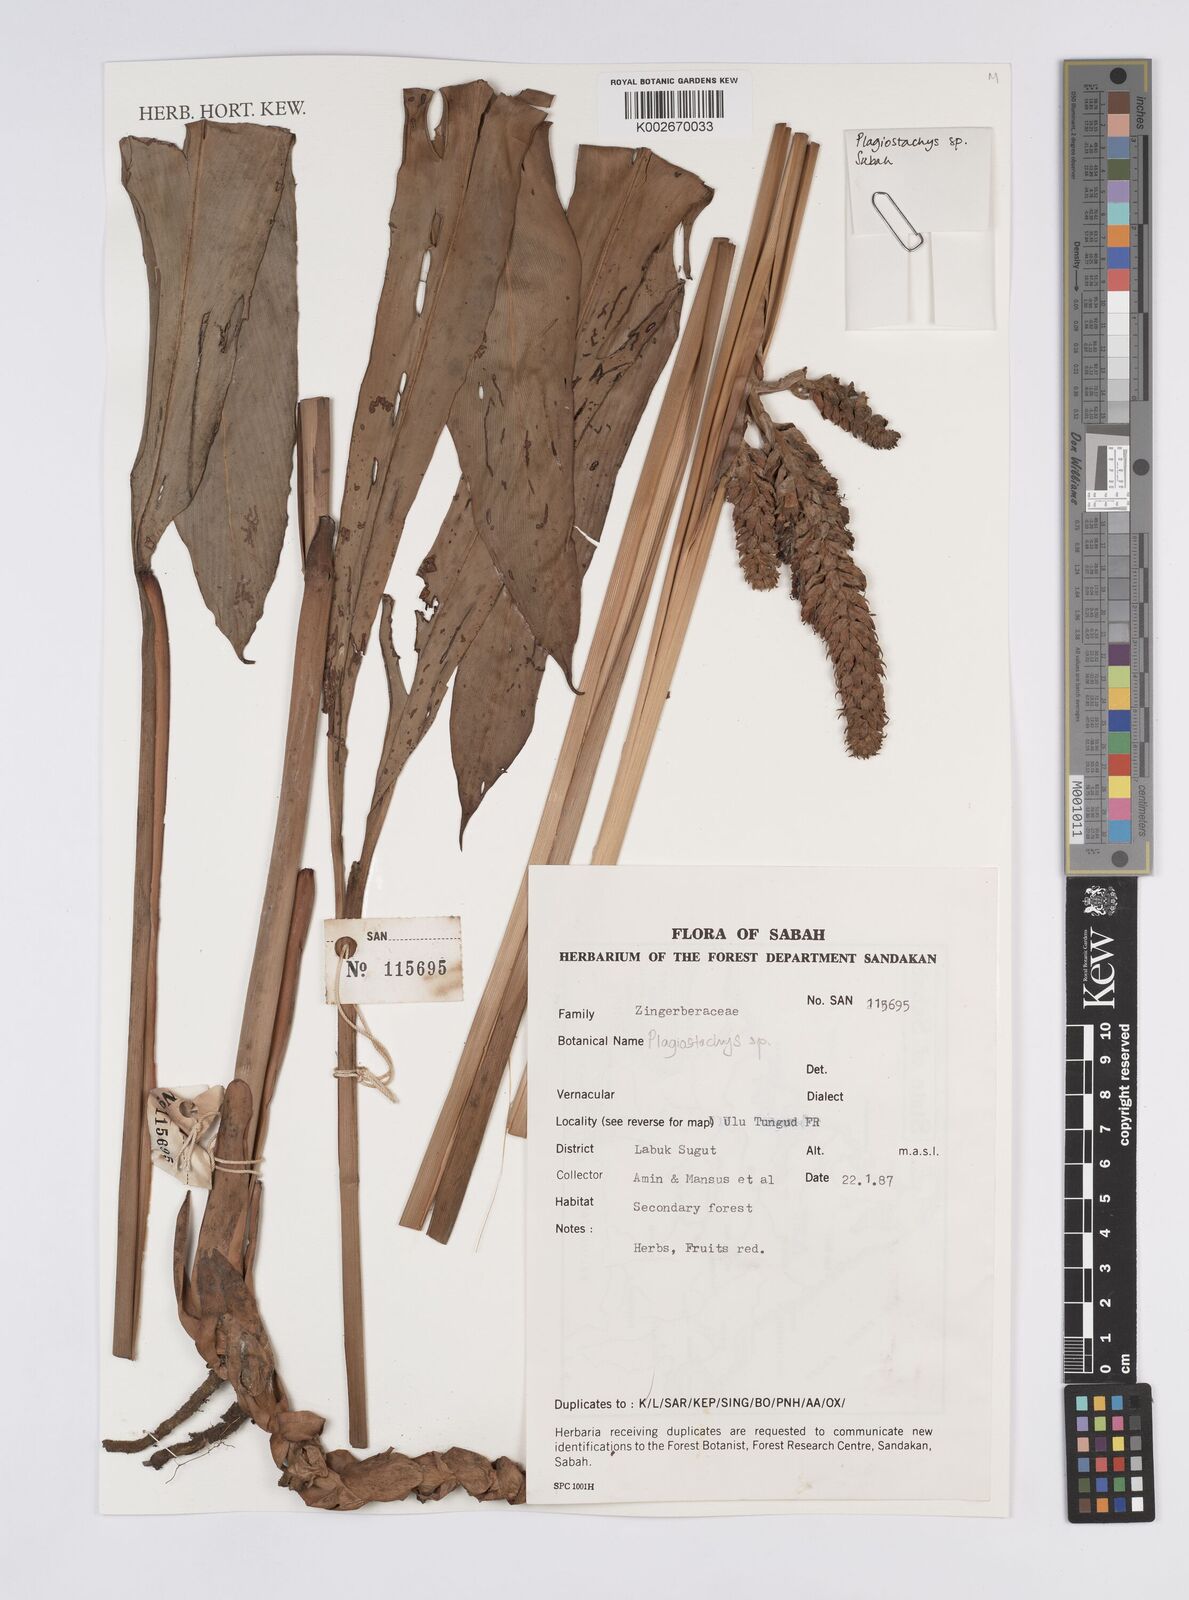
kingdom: Plantae
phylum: Tracheophyta
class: Liliopsida
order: Zingiberales
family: Zingiberaceae
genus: Plagiostachys
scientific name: Plagiostachys
